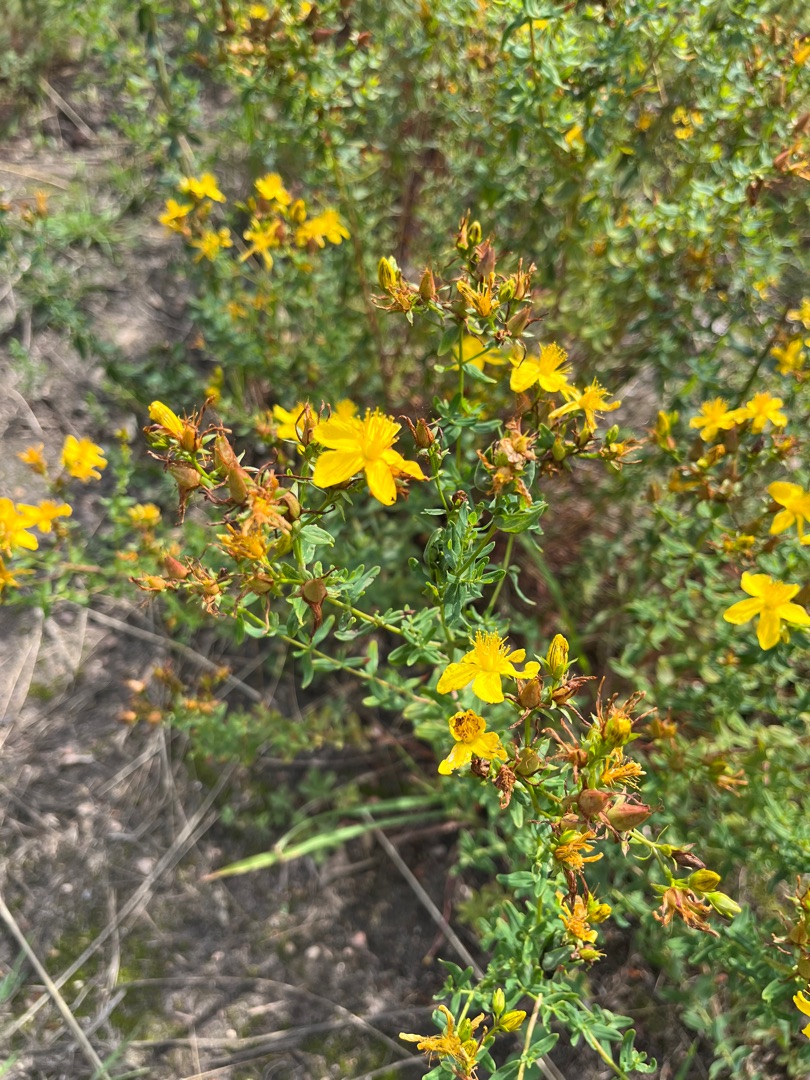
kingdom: Plantae
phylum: Tracheophyta
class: Magnoliopsida
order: Malpighiales
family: Hypericaceae
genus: Hypericum
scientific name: Hypericum perforatum
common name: Prikbladet perikon
